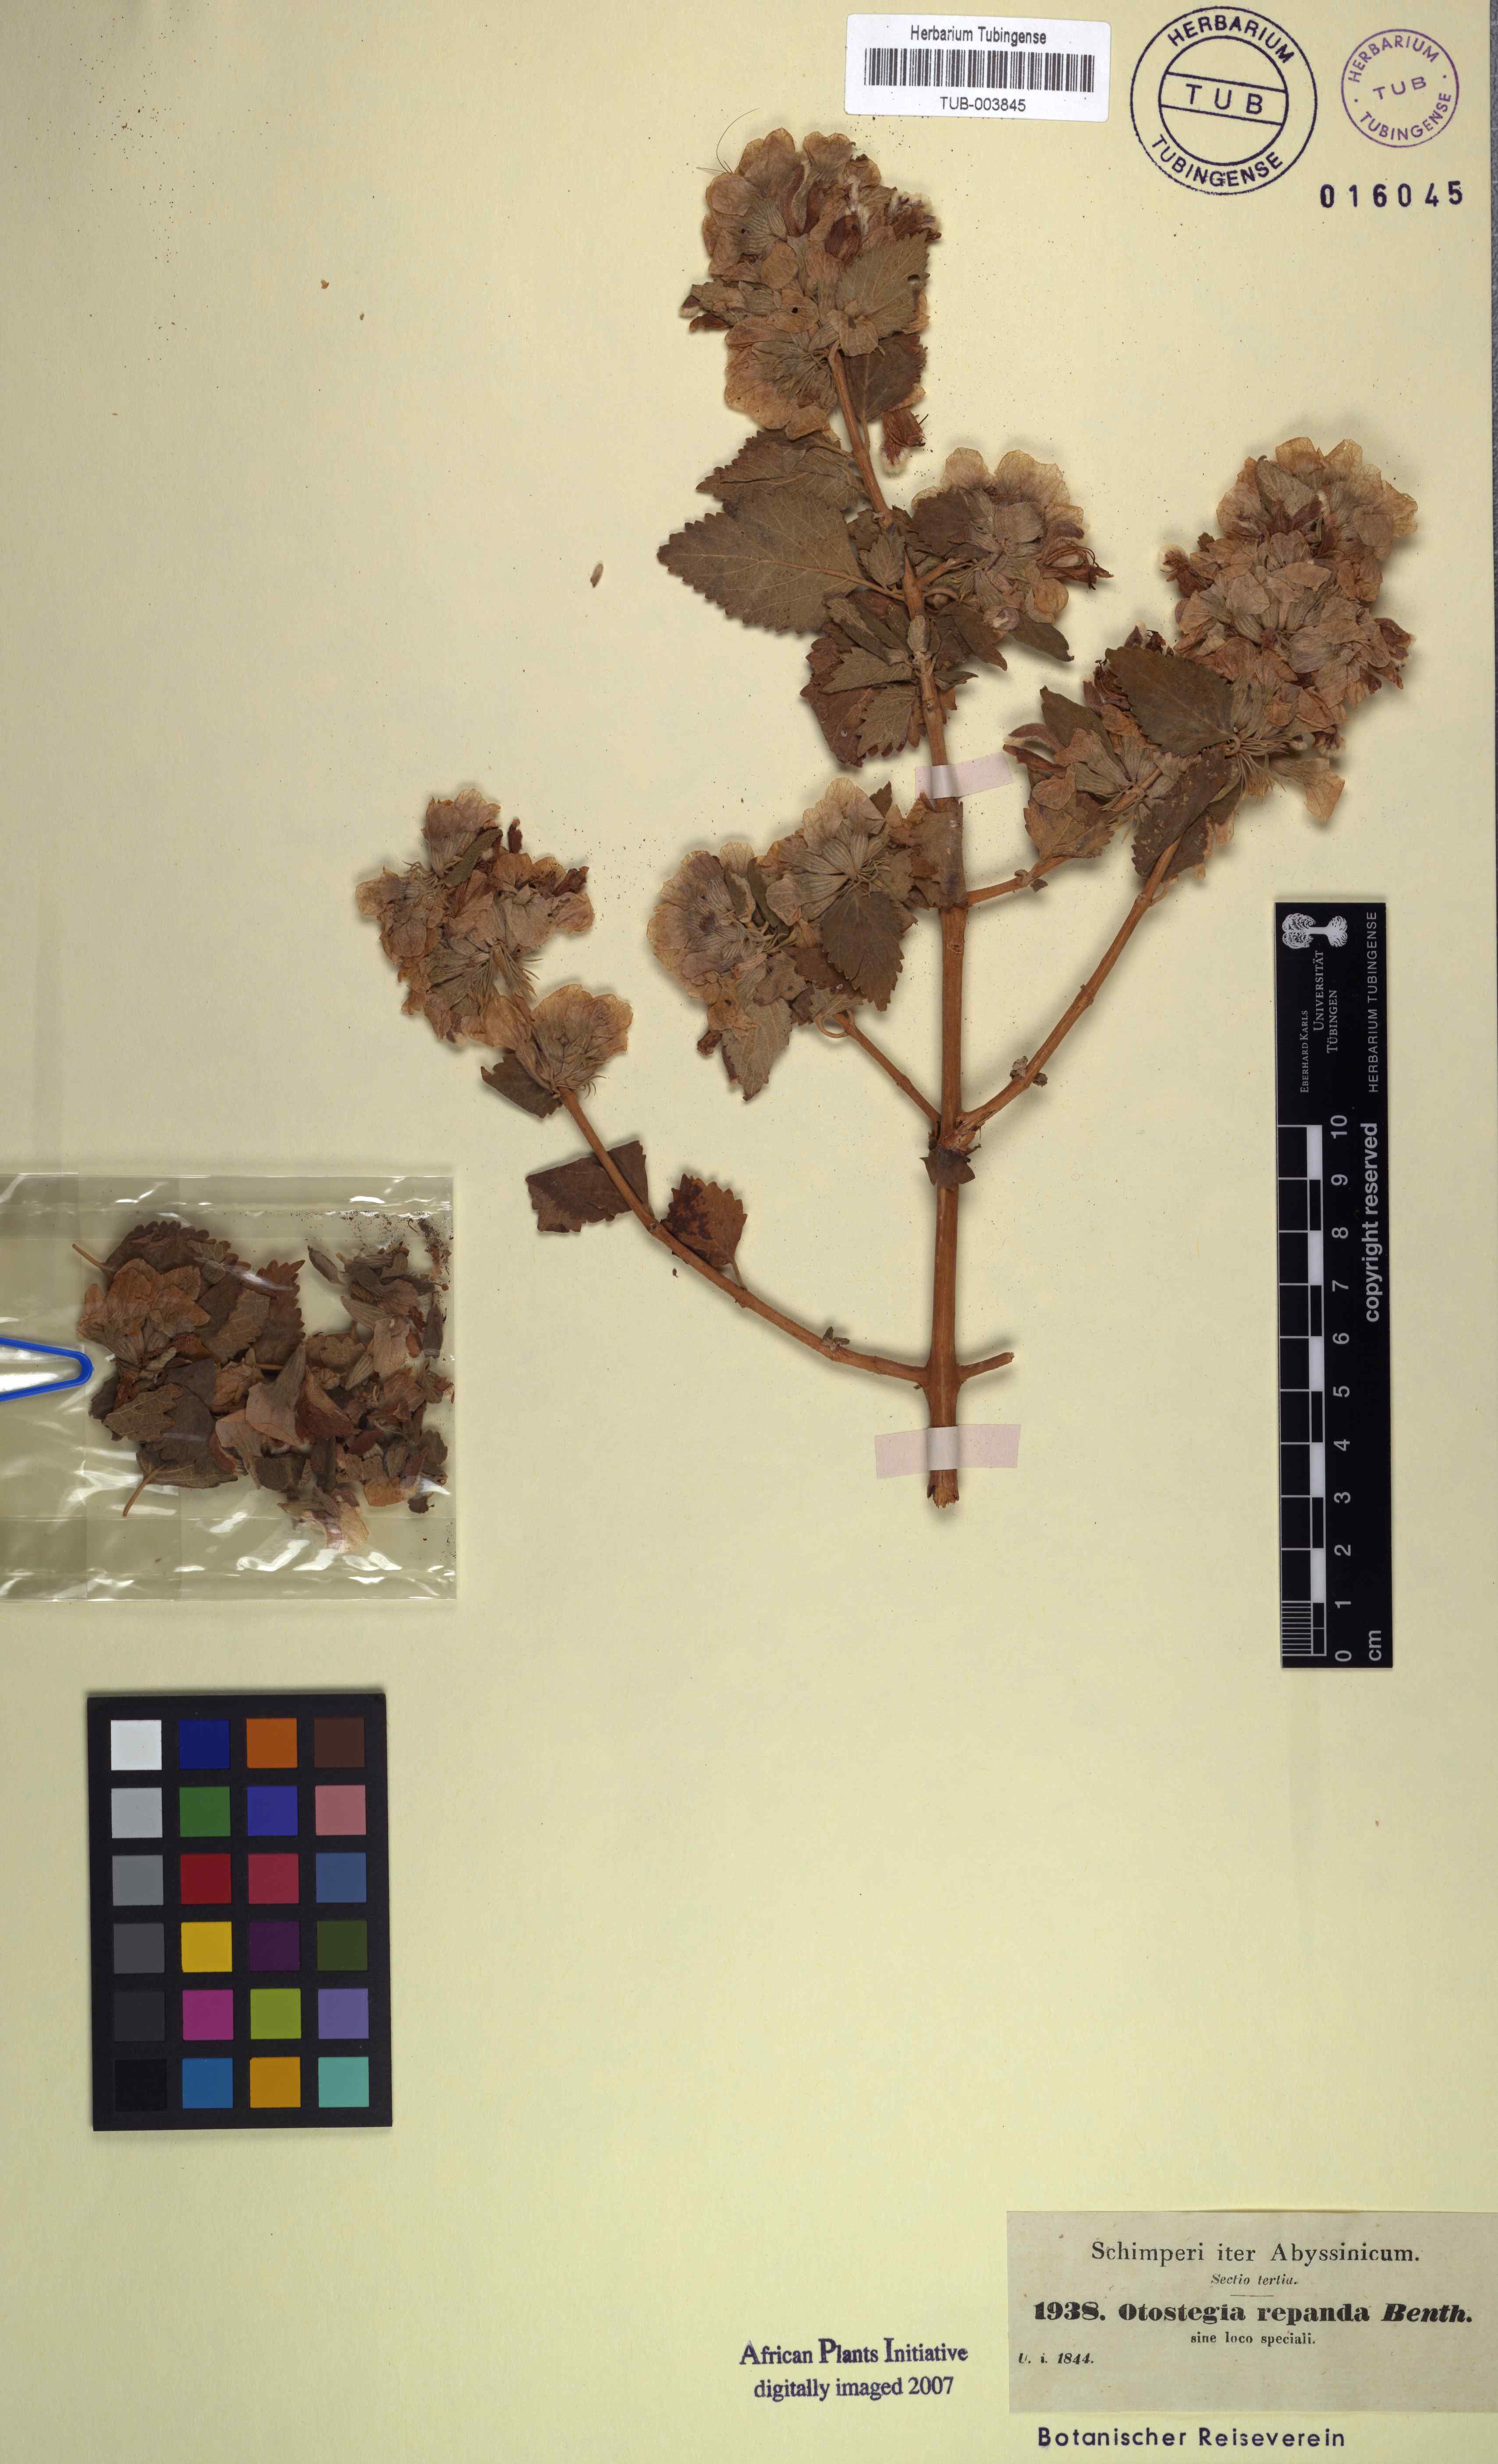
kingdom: Plantae
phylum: Tracheophyta
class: Magnoliopsida
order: Lamiales
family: Lamiaceae
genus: Otostegia
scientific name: Otostegia fruticosa
